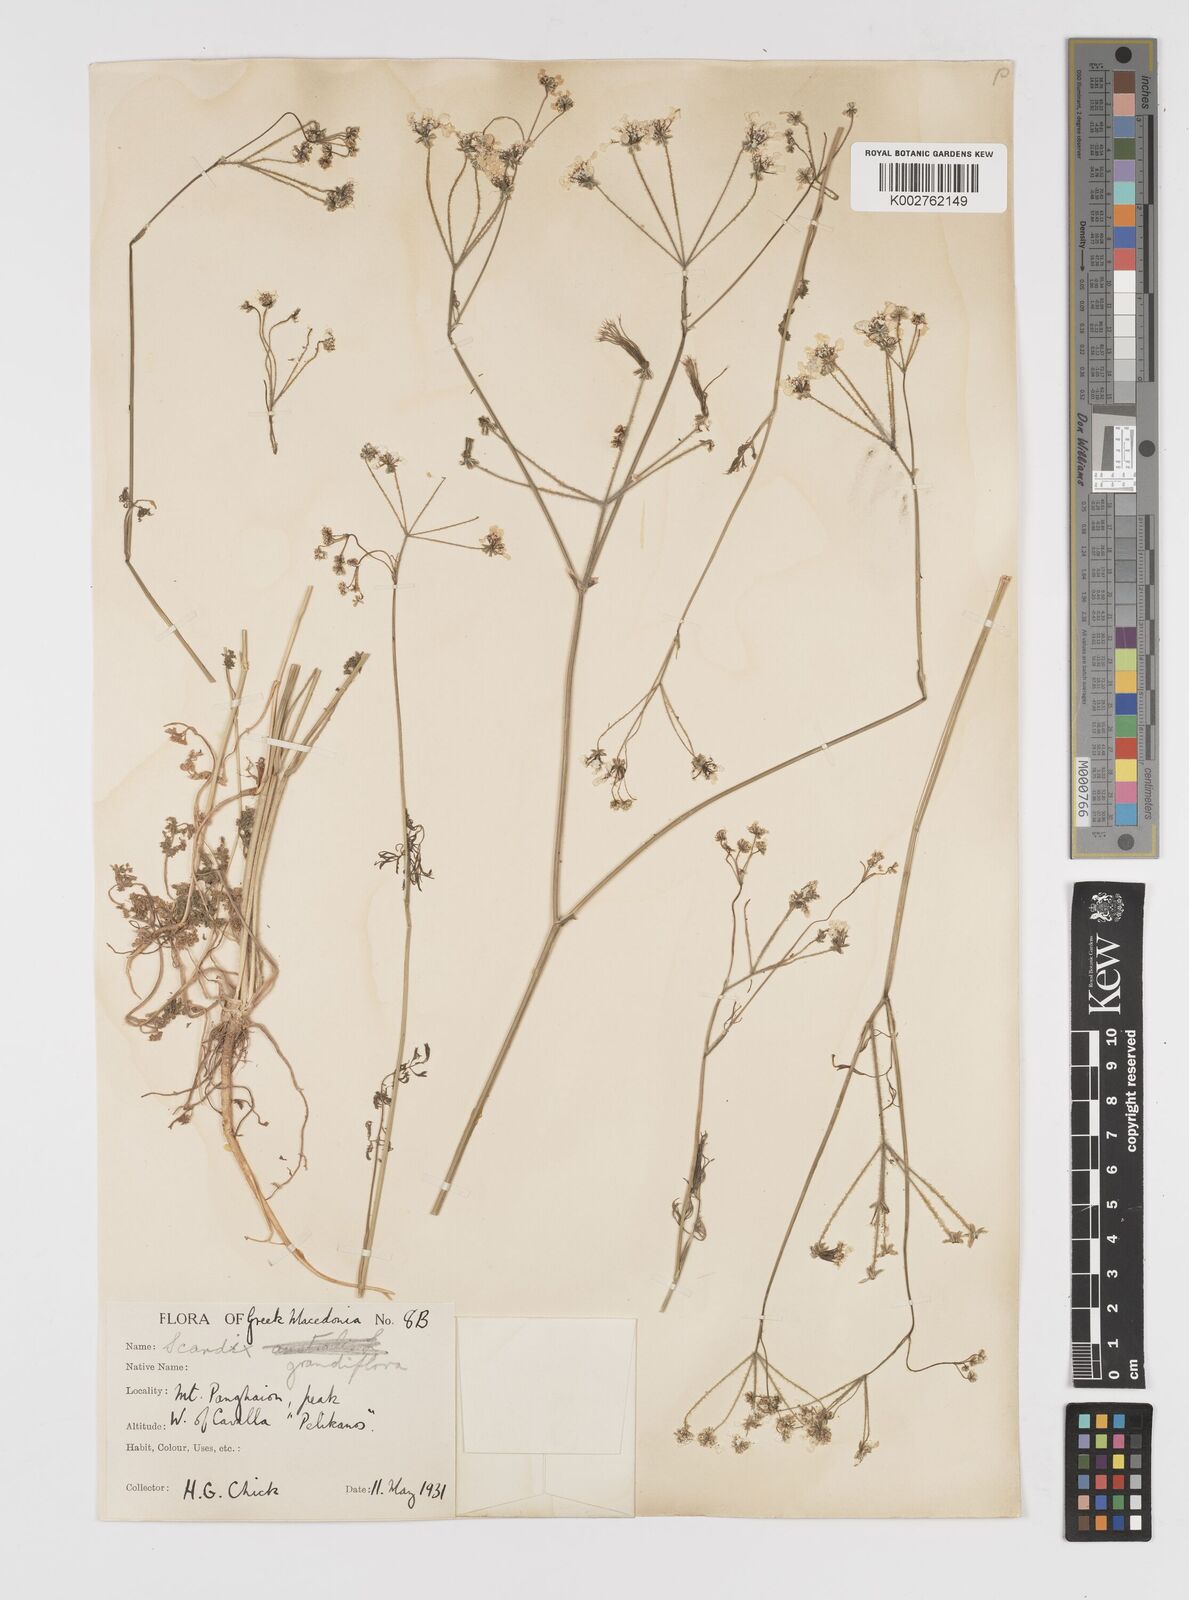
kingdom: Plantae
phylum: Tracheophyta
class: Magnoliopsida
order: Apiales
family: Apiaceae
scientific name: Apiaceae
